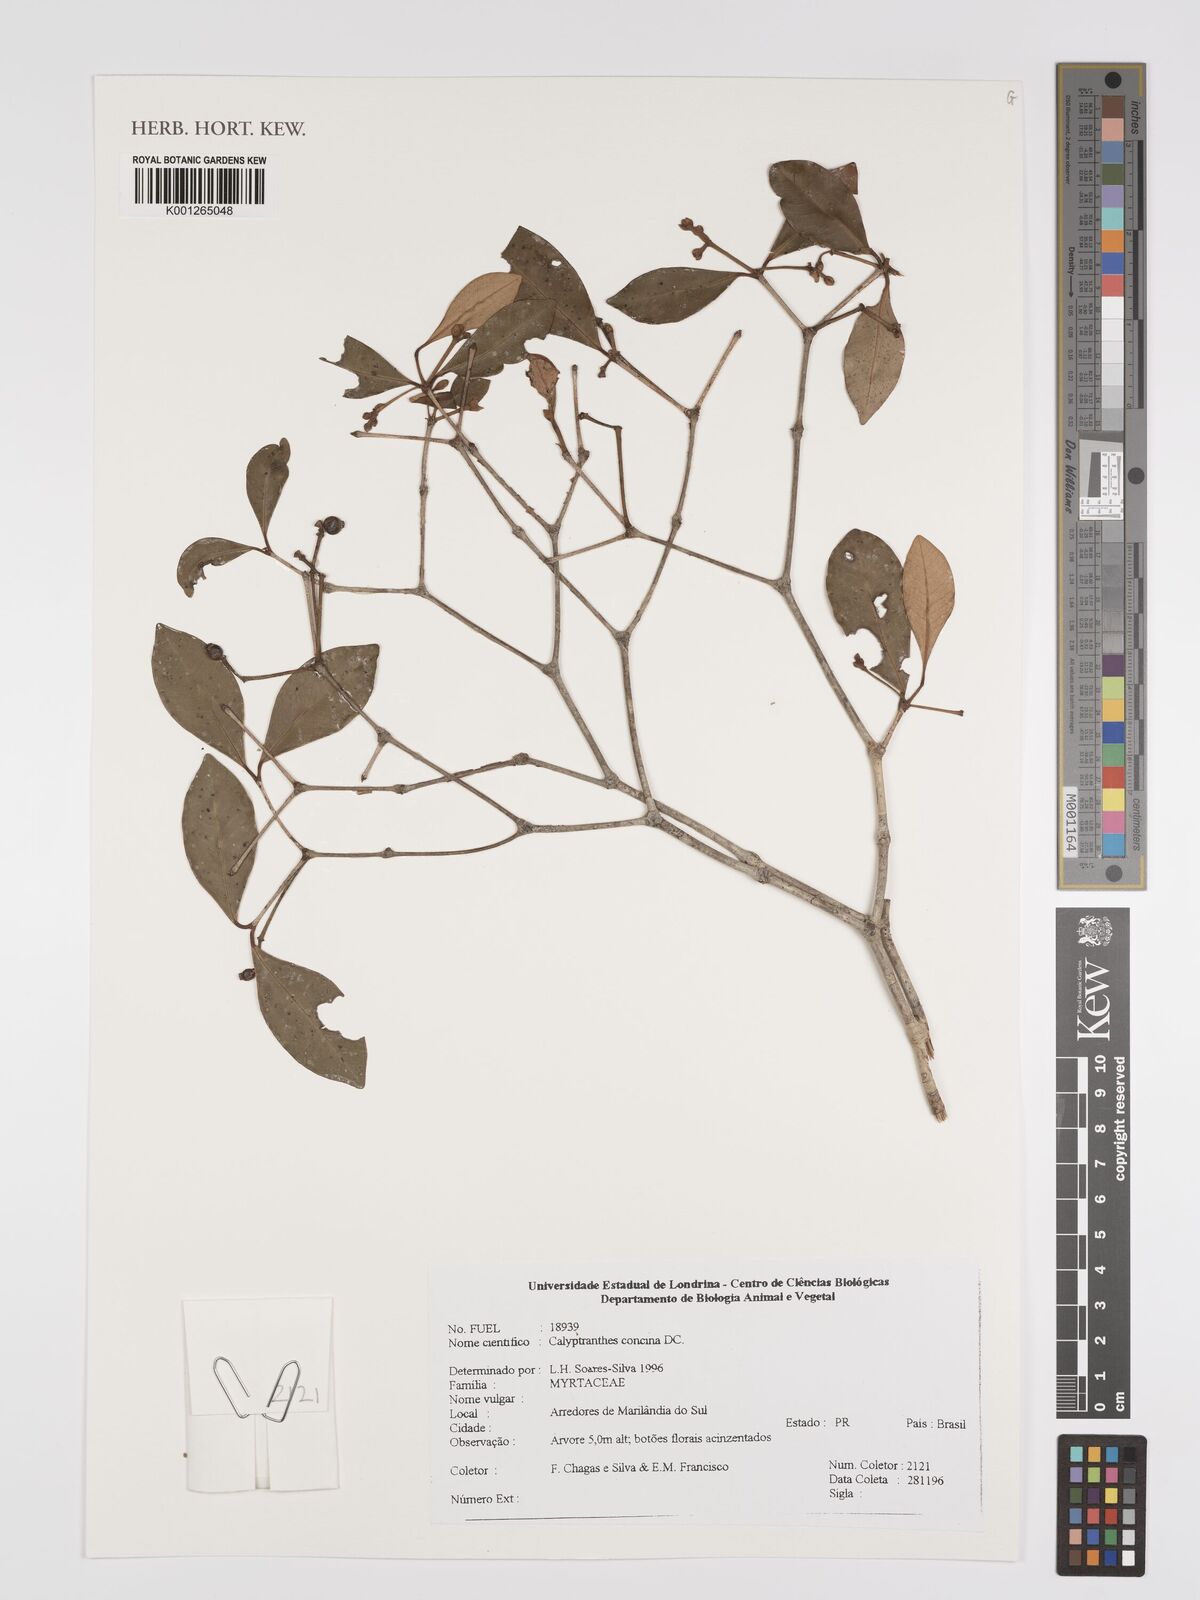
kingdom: Plantae
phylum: Tracheophyta
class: Magnoliopsida
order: Myrtales
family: Myrtaceae
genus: Myrcia
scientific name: Myrcia cruciflora
